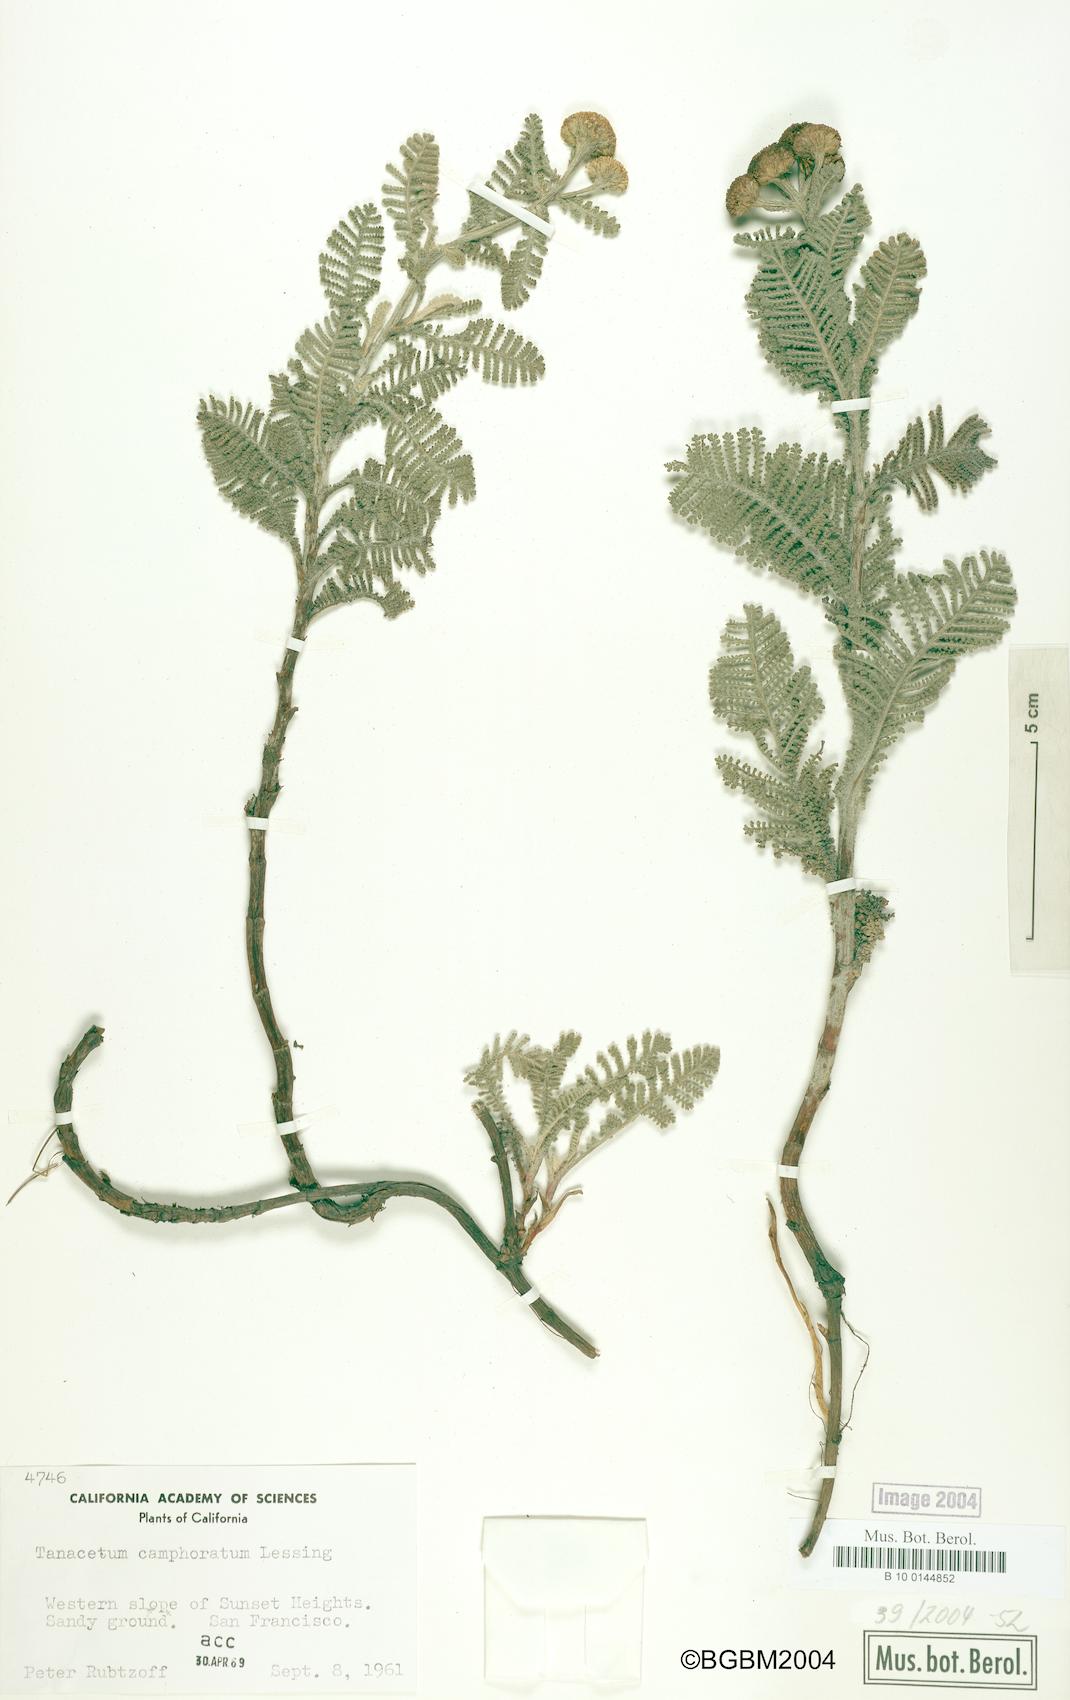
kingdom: Plantae
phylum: Tracheophyta
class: Magnoliopsida
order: Asterales
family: Asteraceae
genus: Tanacetum
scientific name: Tanacetum bipinnatum
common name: Dwarf tansy
